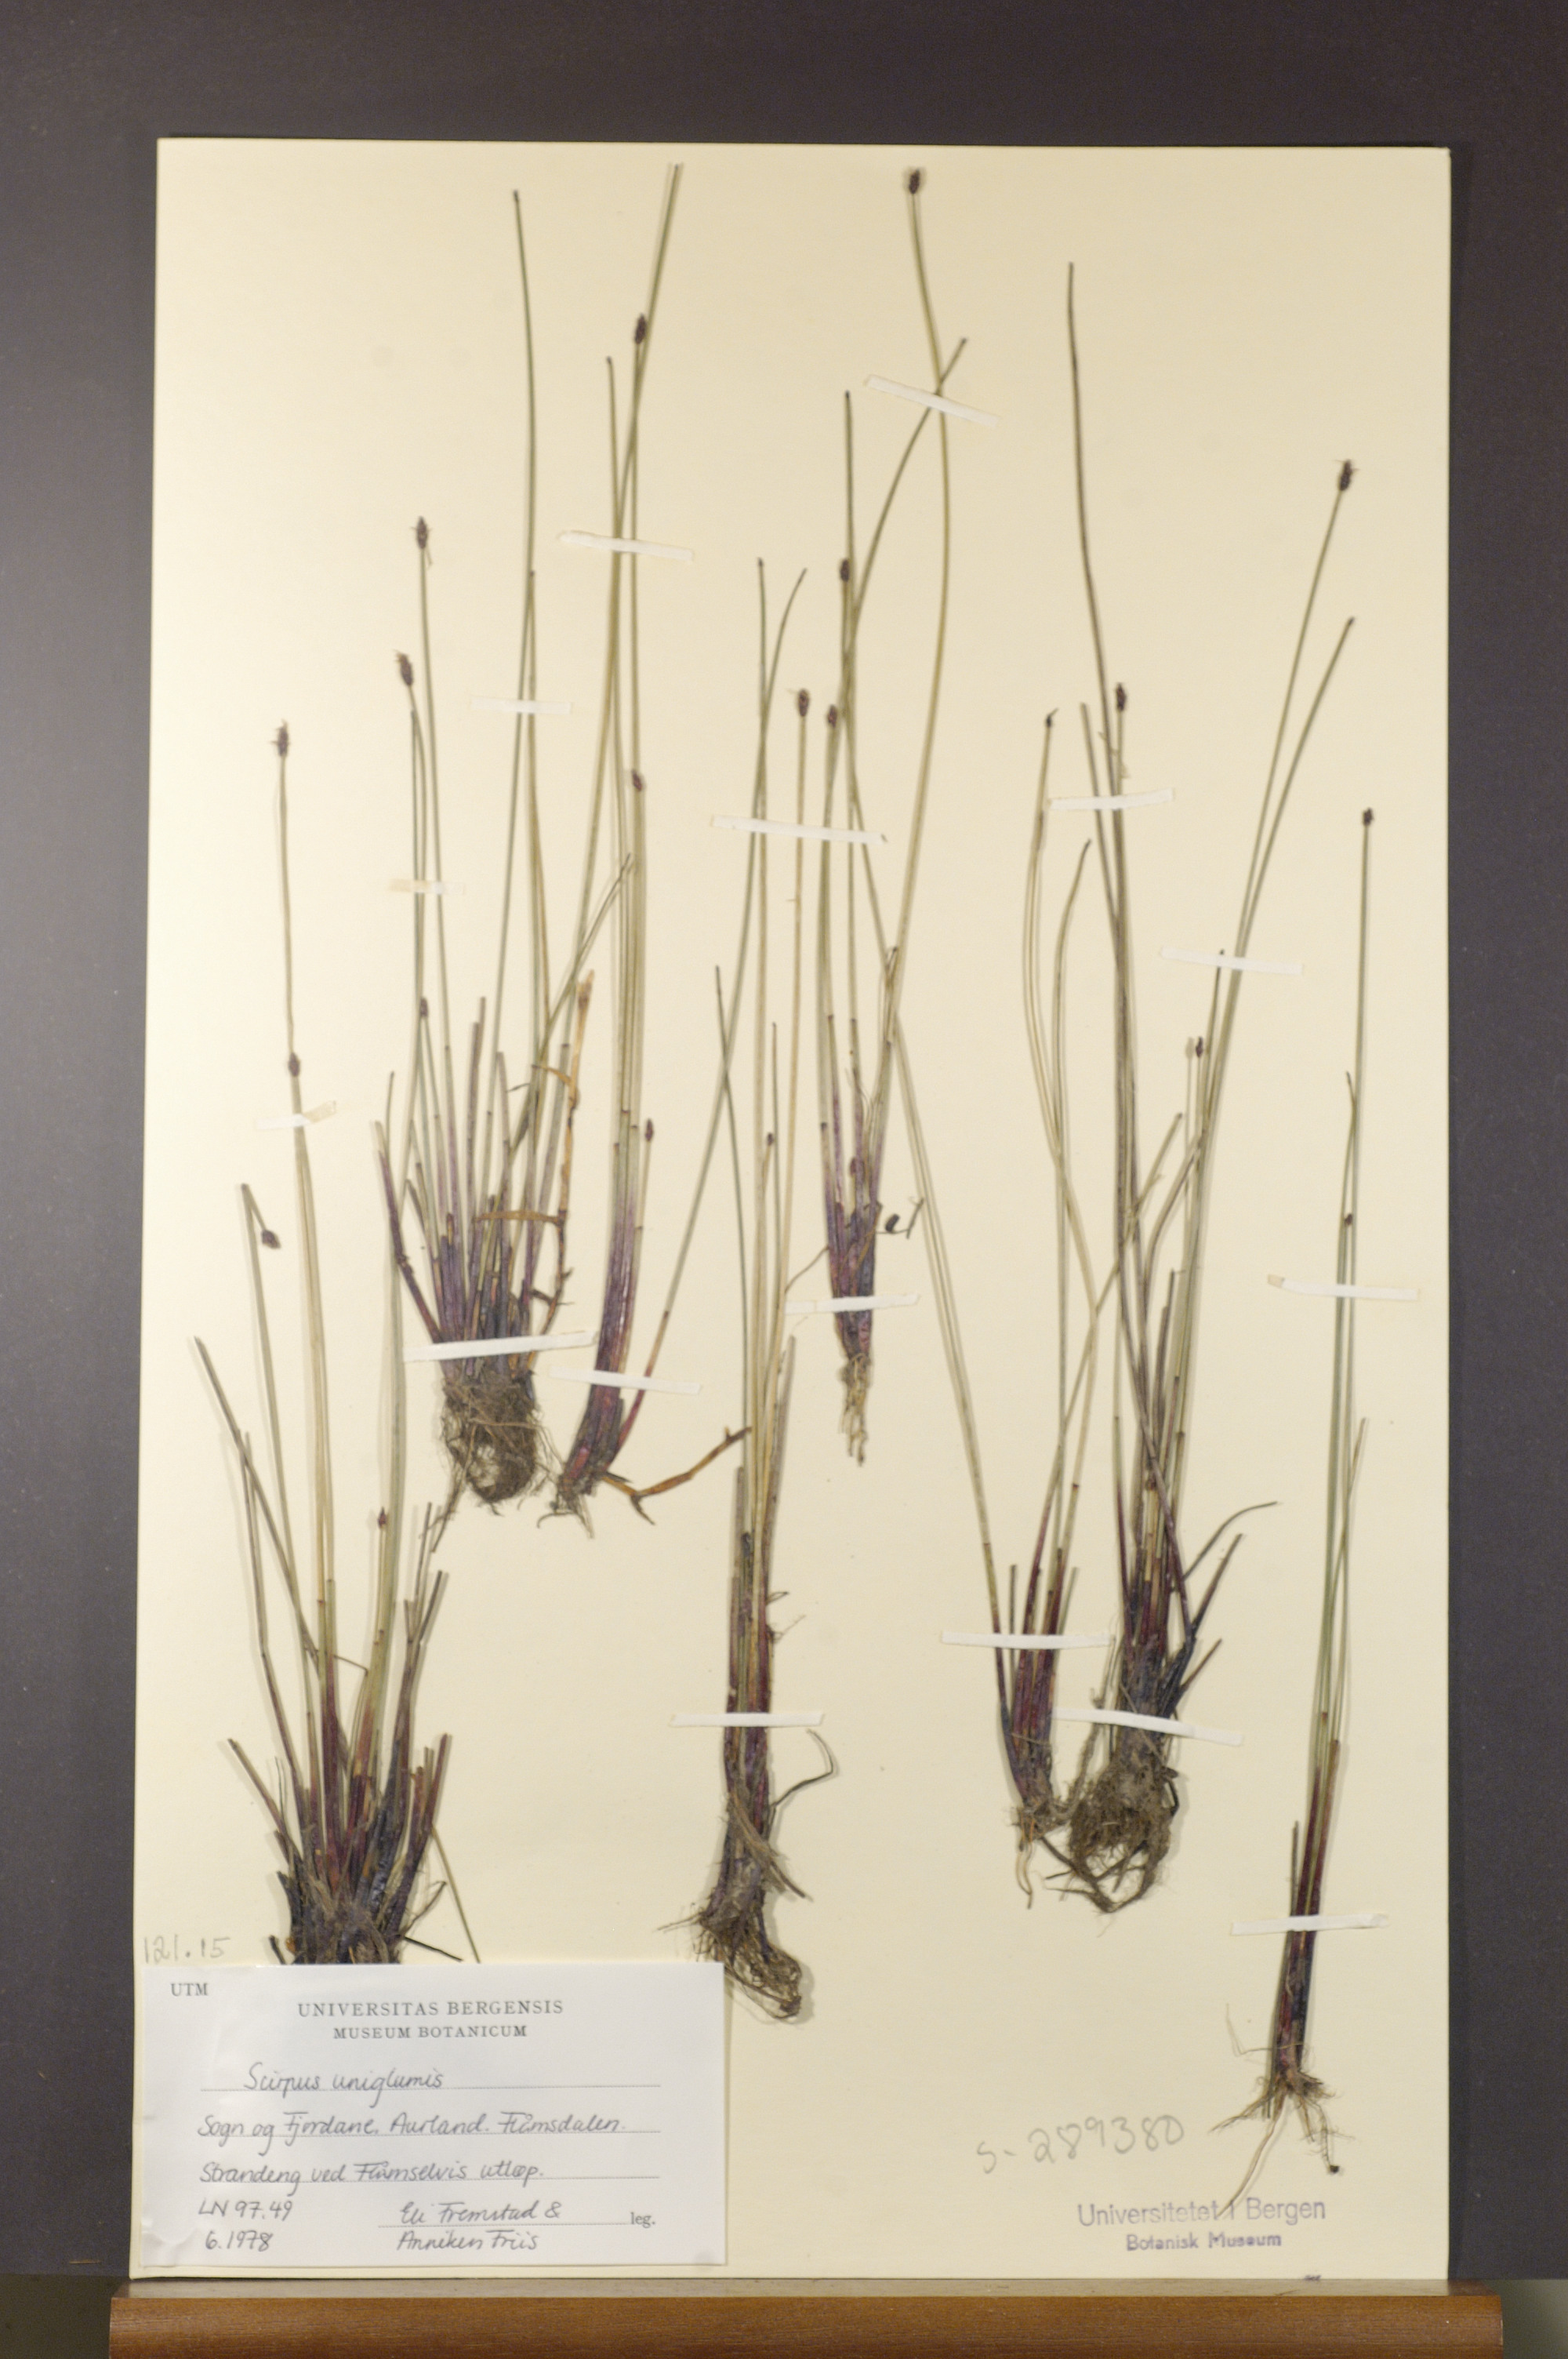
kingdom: Plantae
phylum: Tracheophyta
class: Liliopsida
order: Poales
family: Cyperaceae
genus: Eleocharis
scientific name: Eleocharis uniglumis
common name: Slender spike-rush
